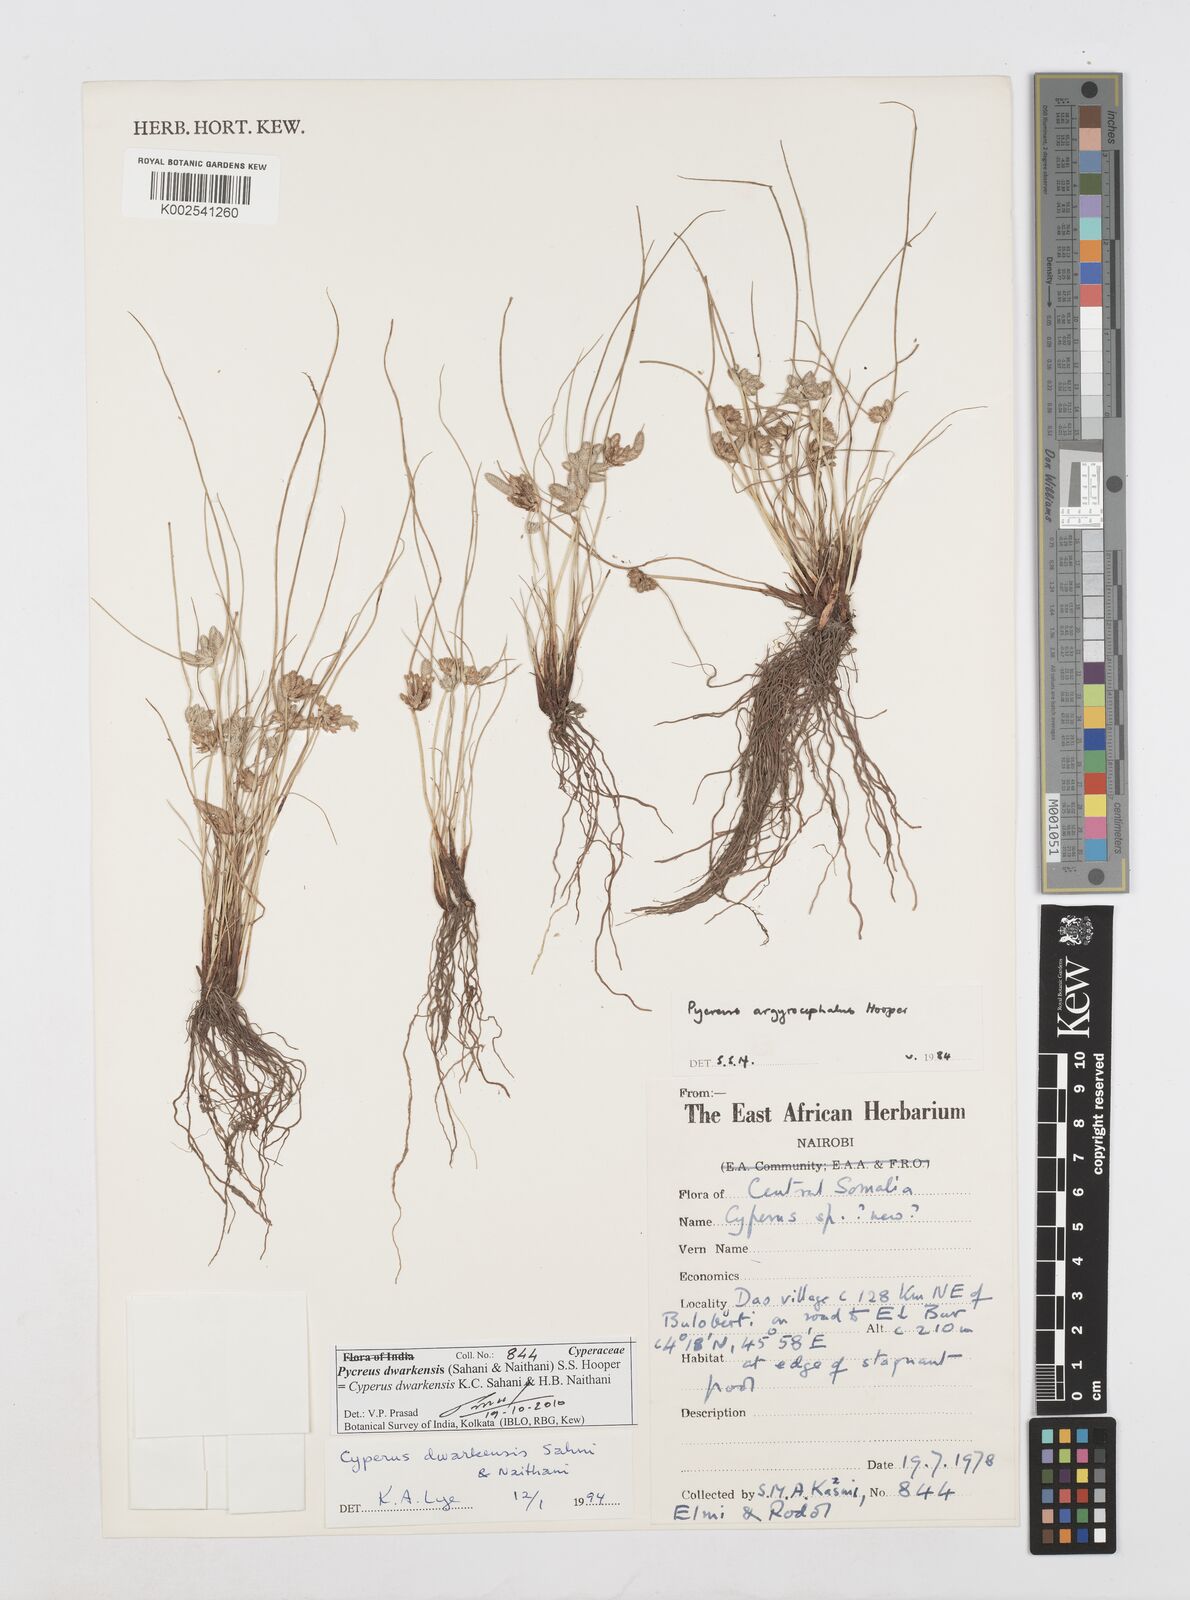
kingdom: Plantae
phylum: Tracheophyta
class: Liliopsida
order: Poales
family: Cyperaceae
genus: Cyperus
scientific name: Cyperus
